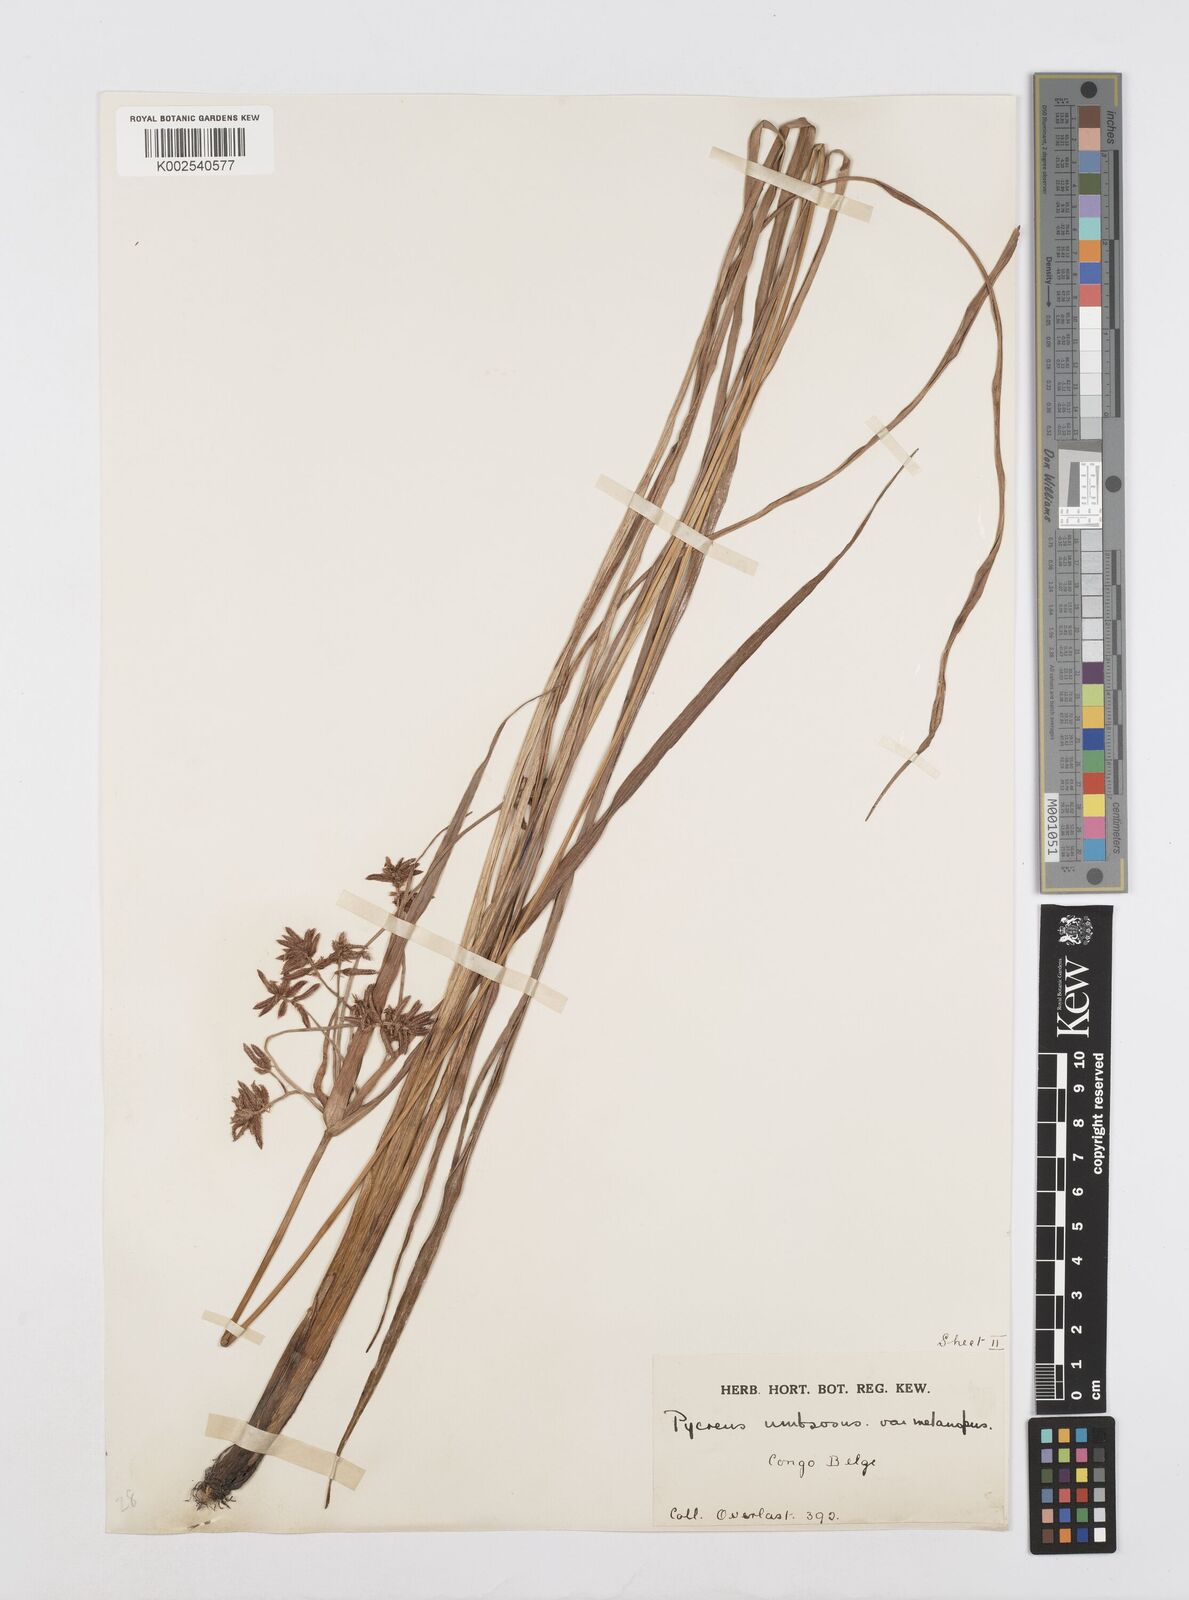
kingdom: Plantae
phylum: Tracheophyta
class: Liliopsida
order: Poales
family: Cyperaceae
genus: Cyperus
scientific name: Cyperus nitidus
